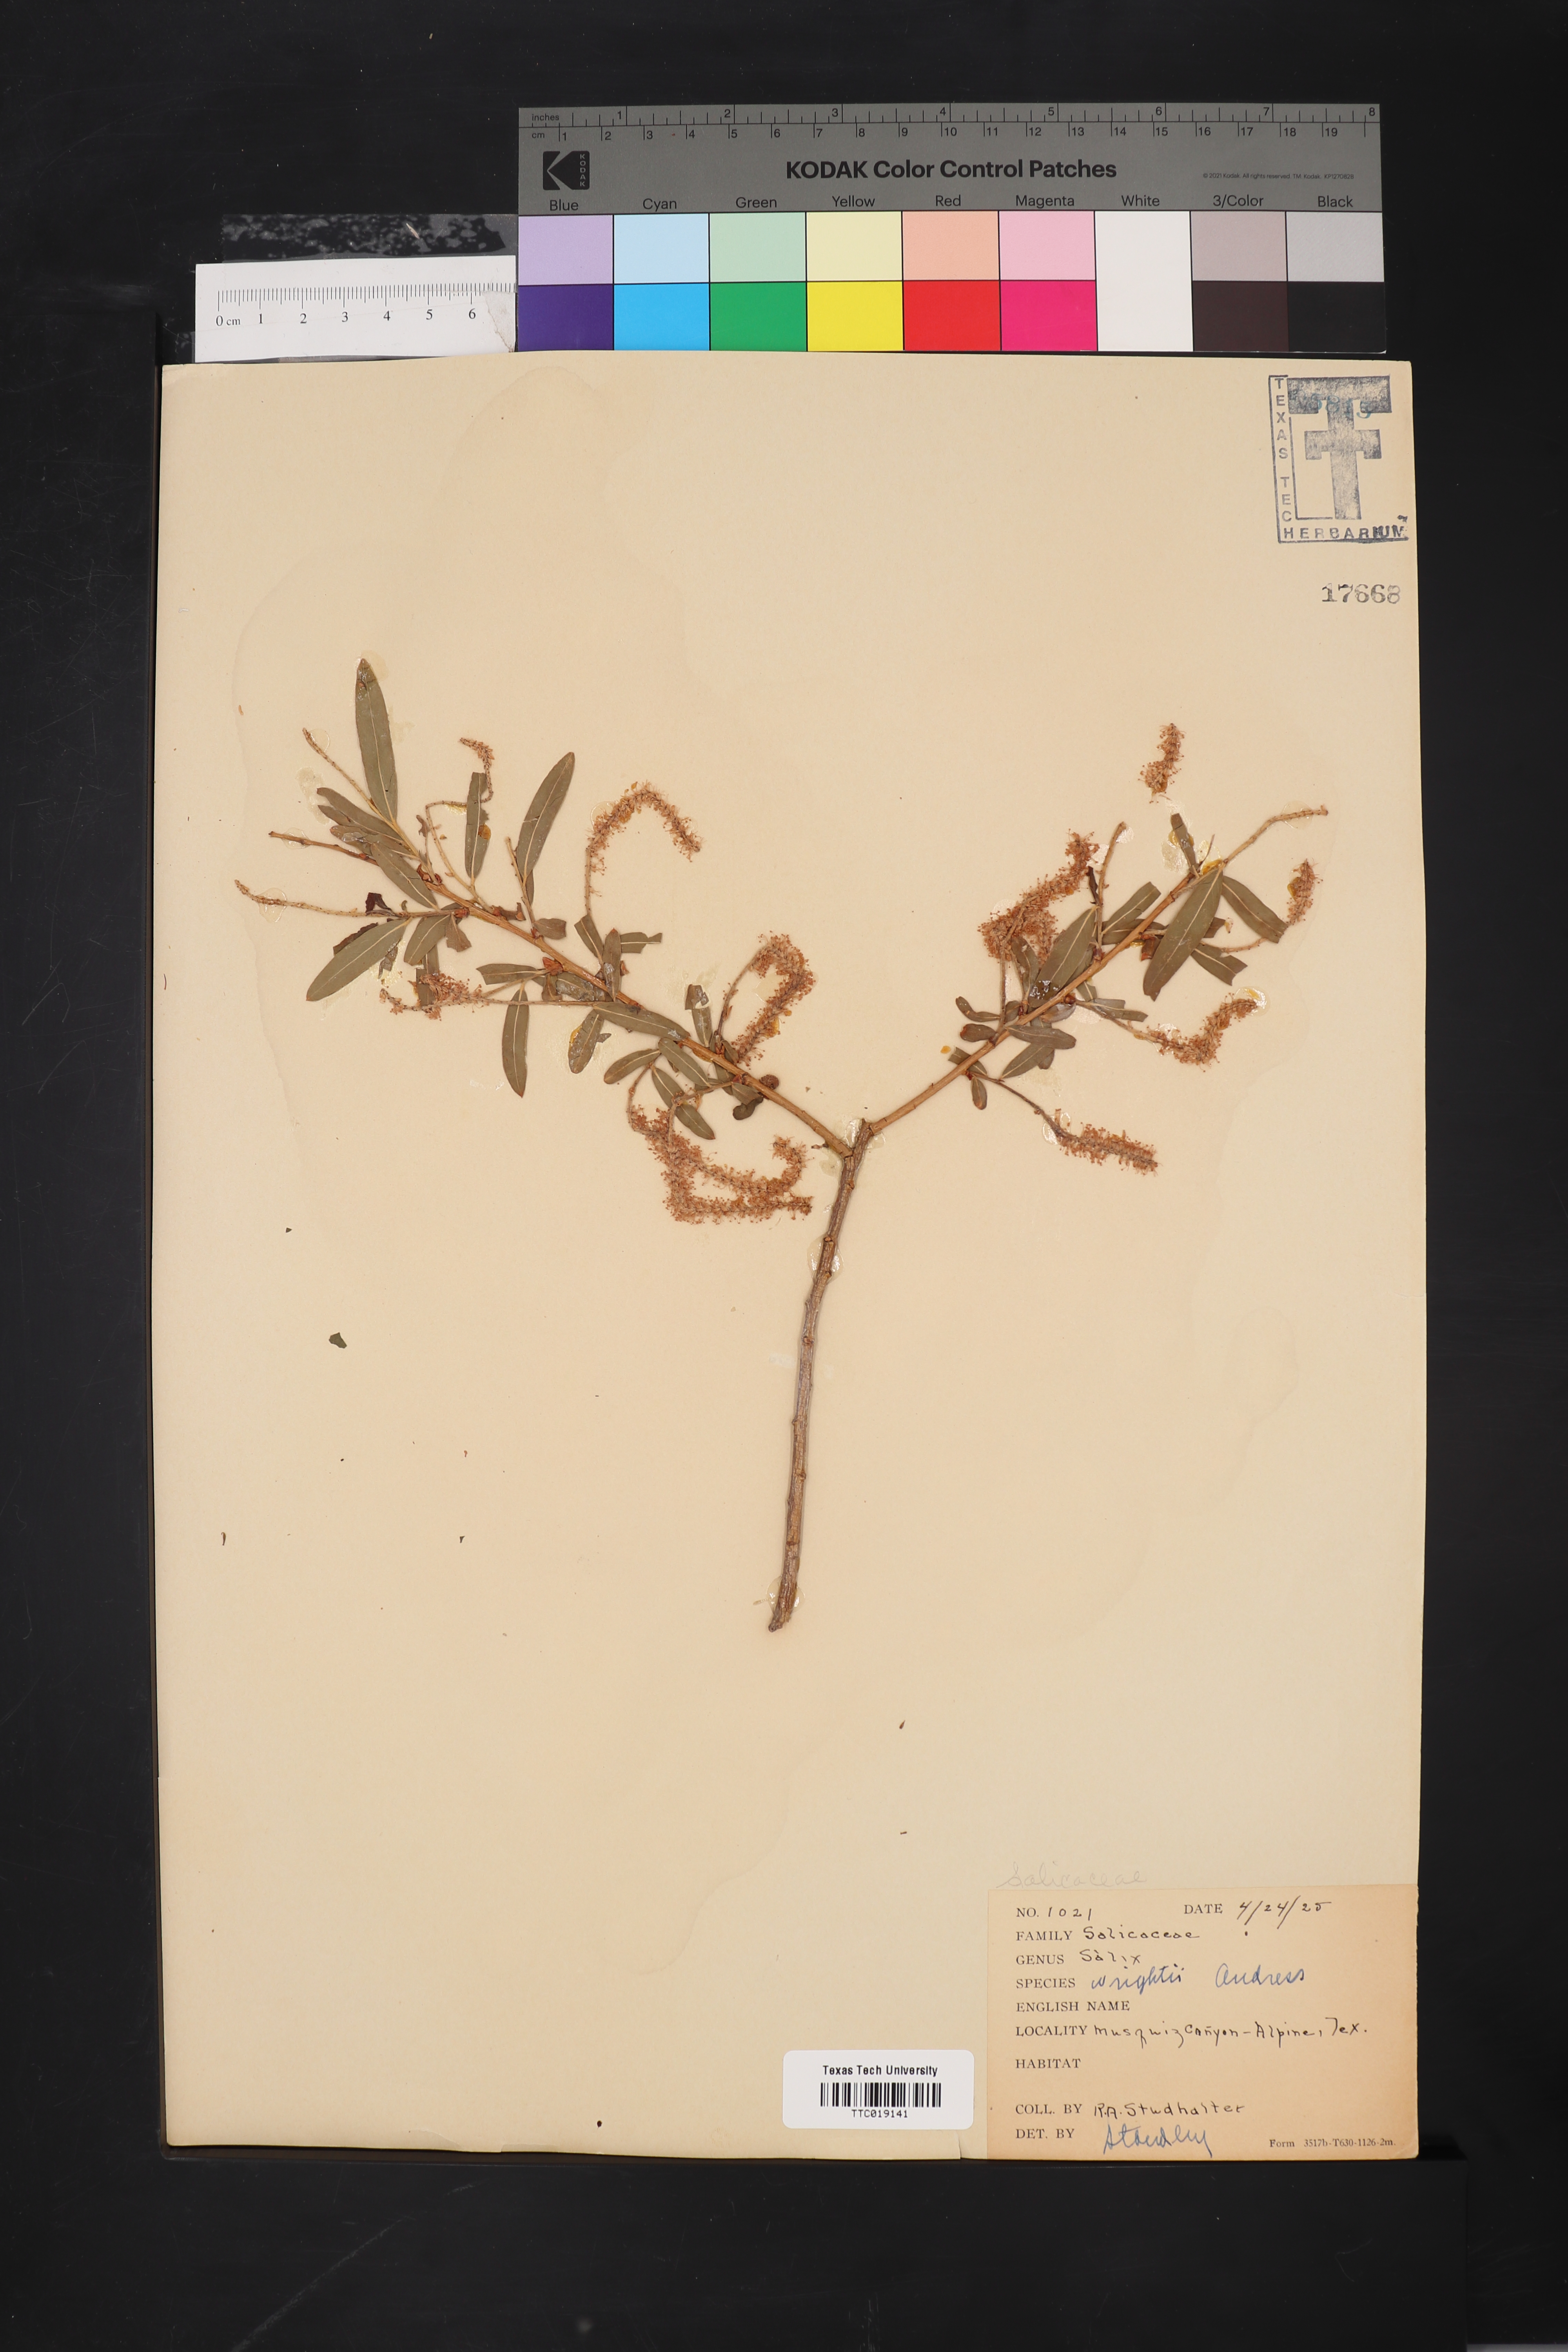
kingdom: Plantae
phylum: Tracheophyta
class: Magnoliopsida
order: Malpighiales
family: Salicaceae
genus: Salix
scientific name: Salix wrightii
